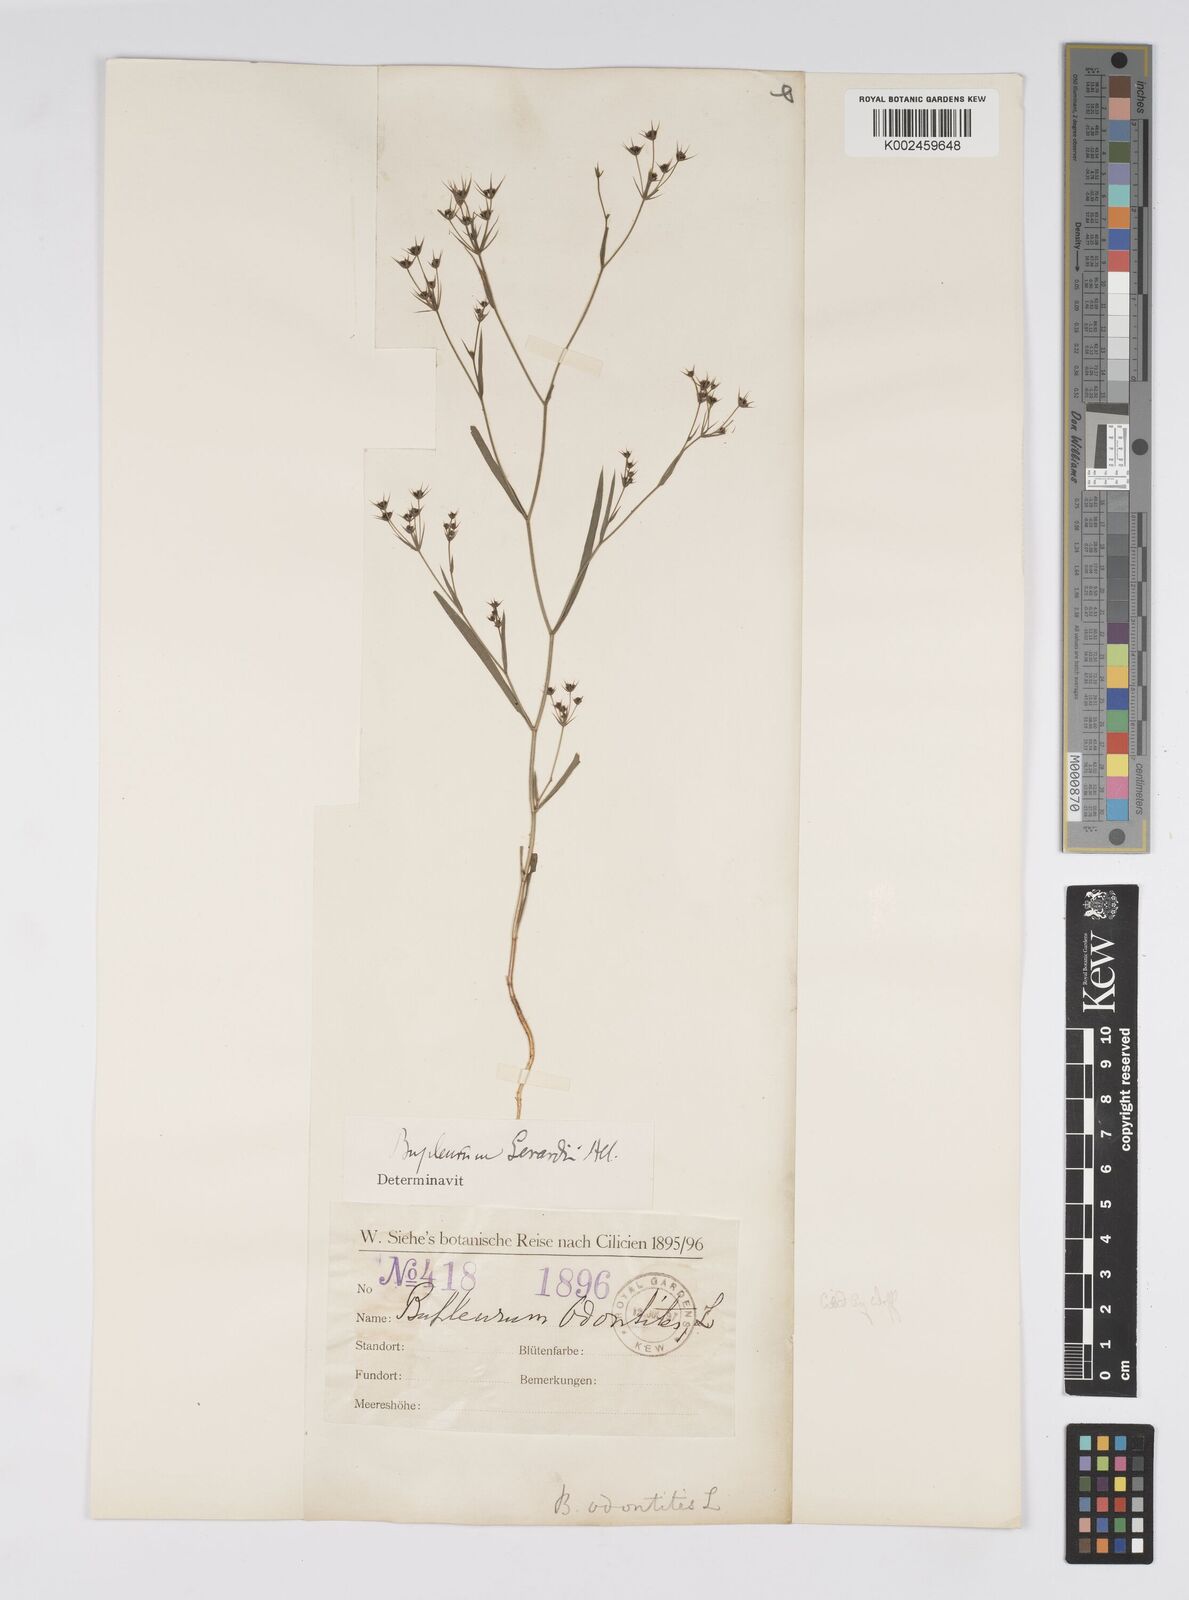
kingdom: Plantae
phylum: Tracheophyta
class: Magnoliopsida
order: Apiales
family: Apiaceae
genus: Bupleurum
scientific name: Bupleurum gerardi
